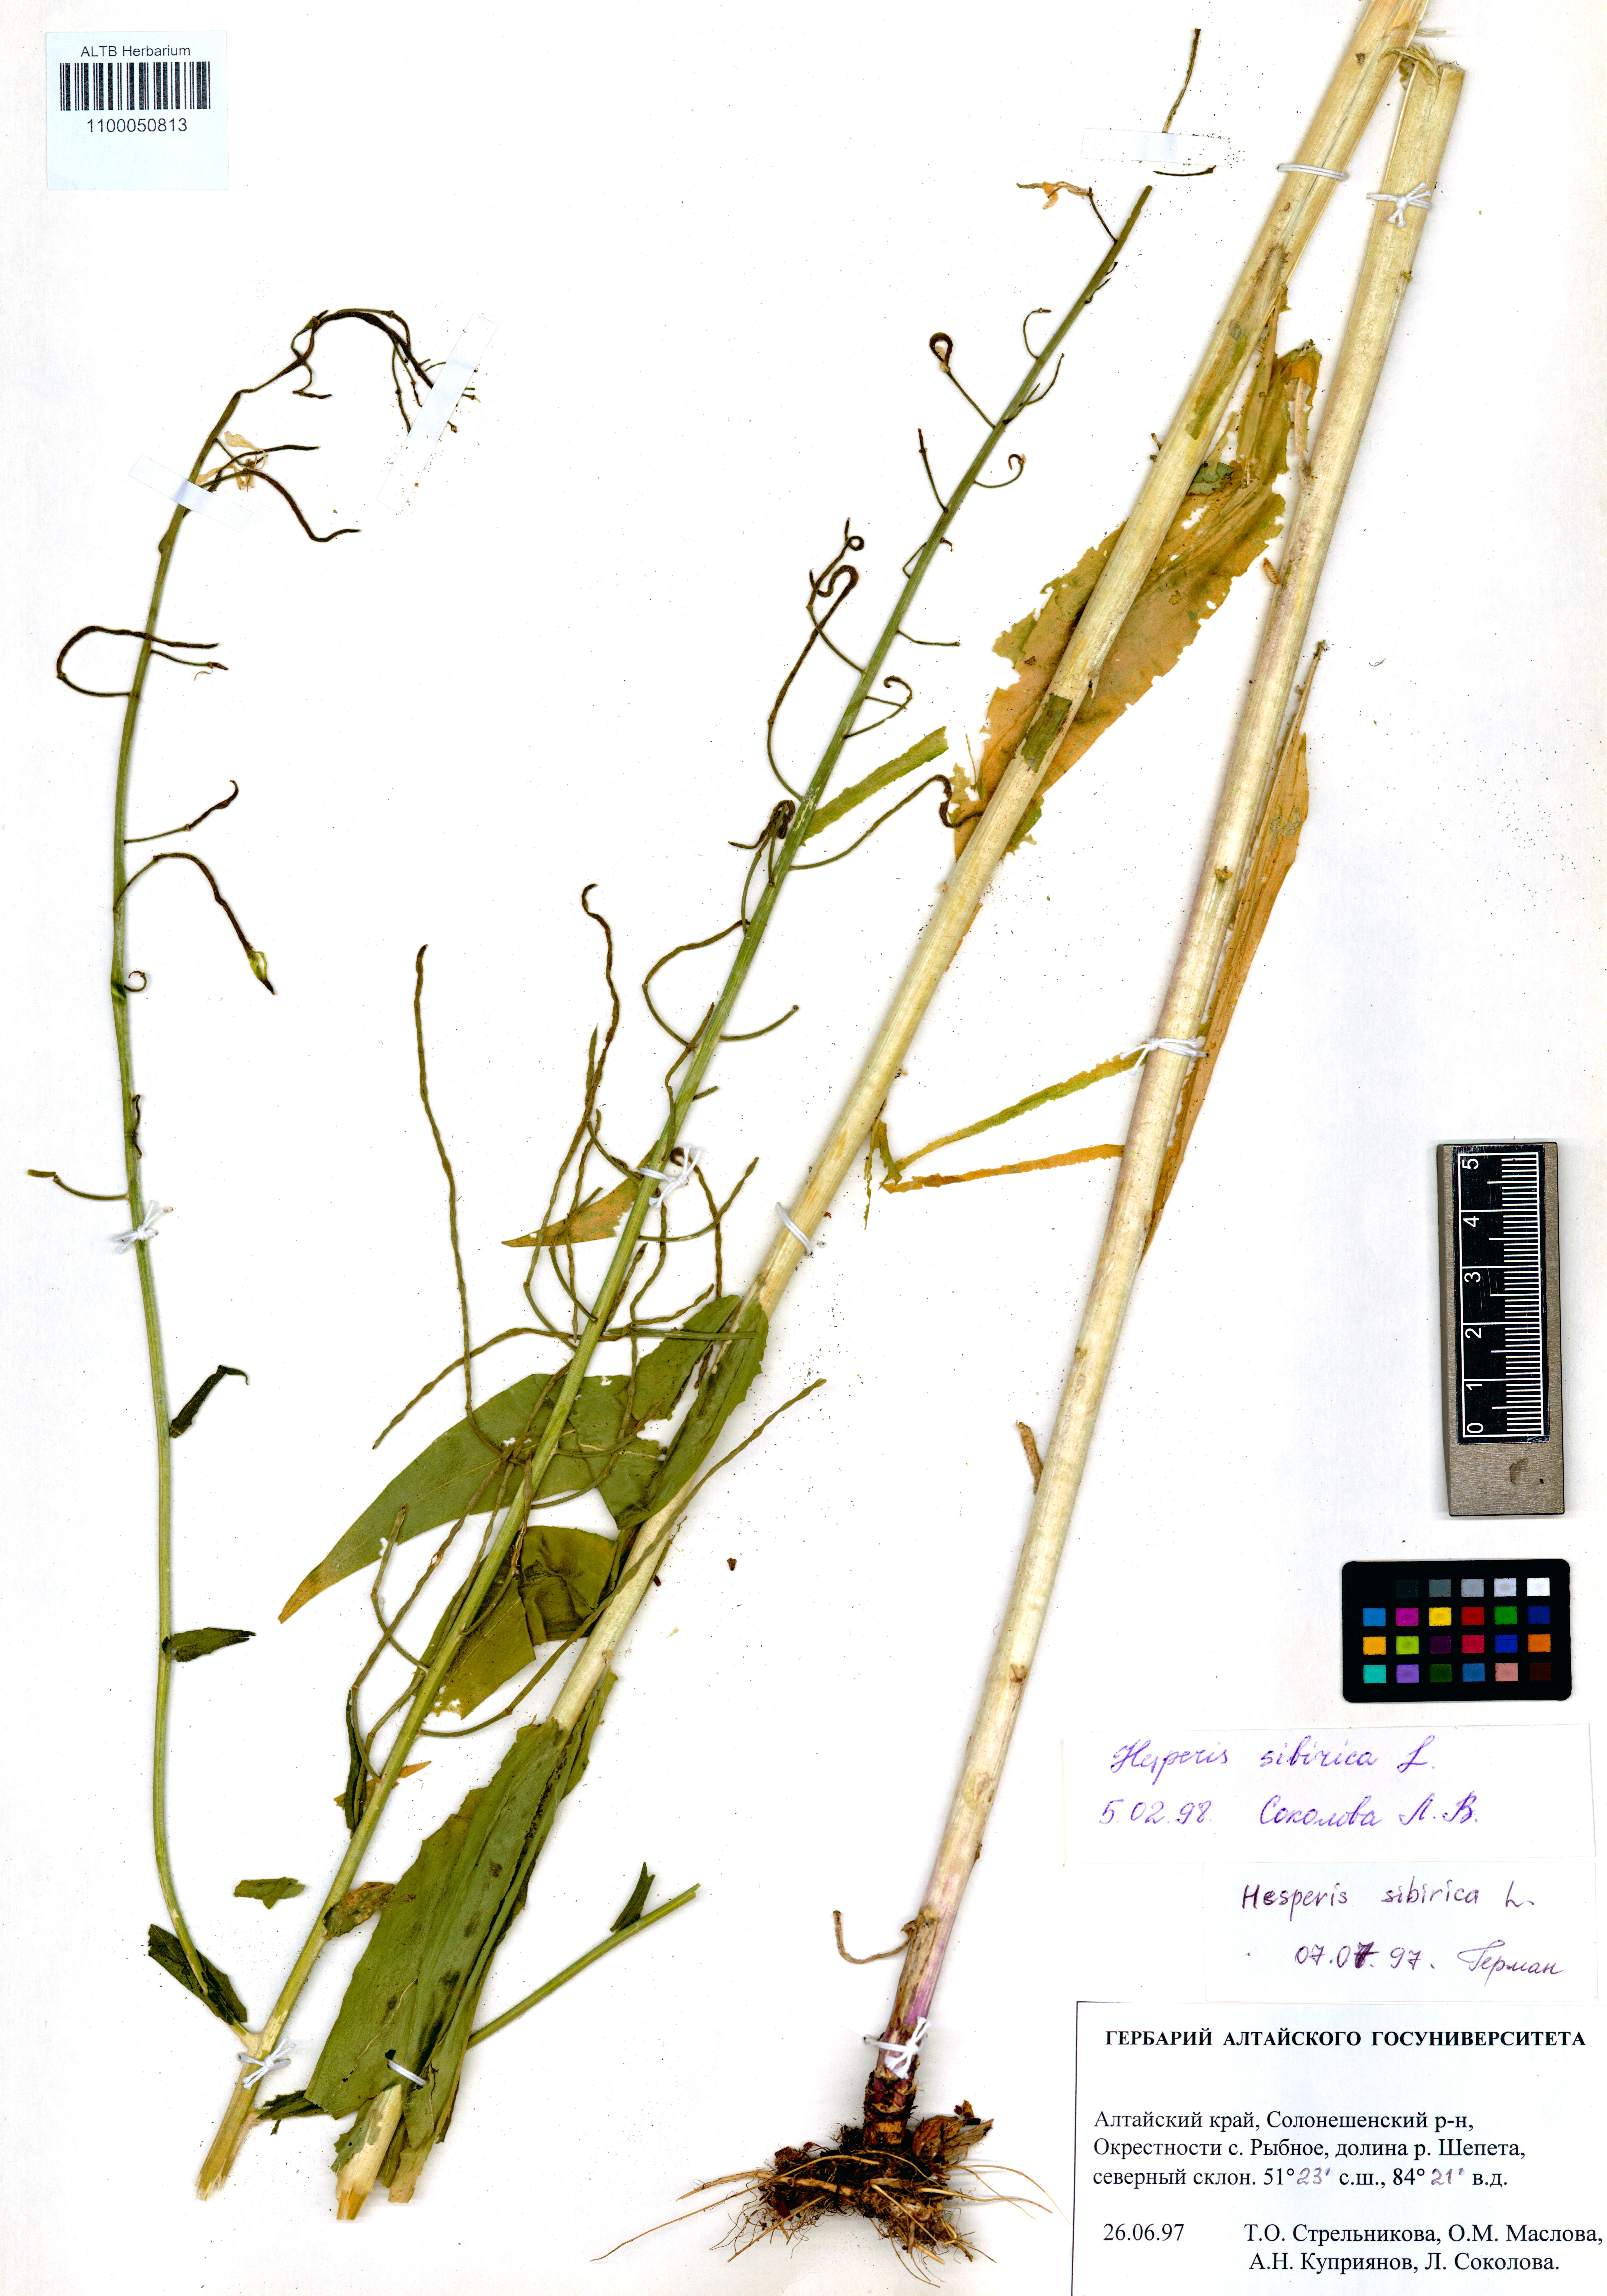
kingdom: Plantae
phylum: Tracheophyta
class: Magnoliopsida
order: Brassicales
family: Brassicaceae
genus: Hesperis
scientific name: Hesperis sibirica
